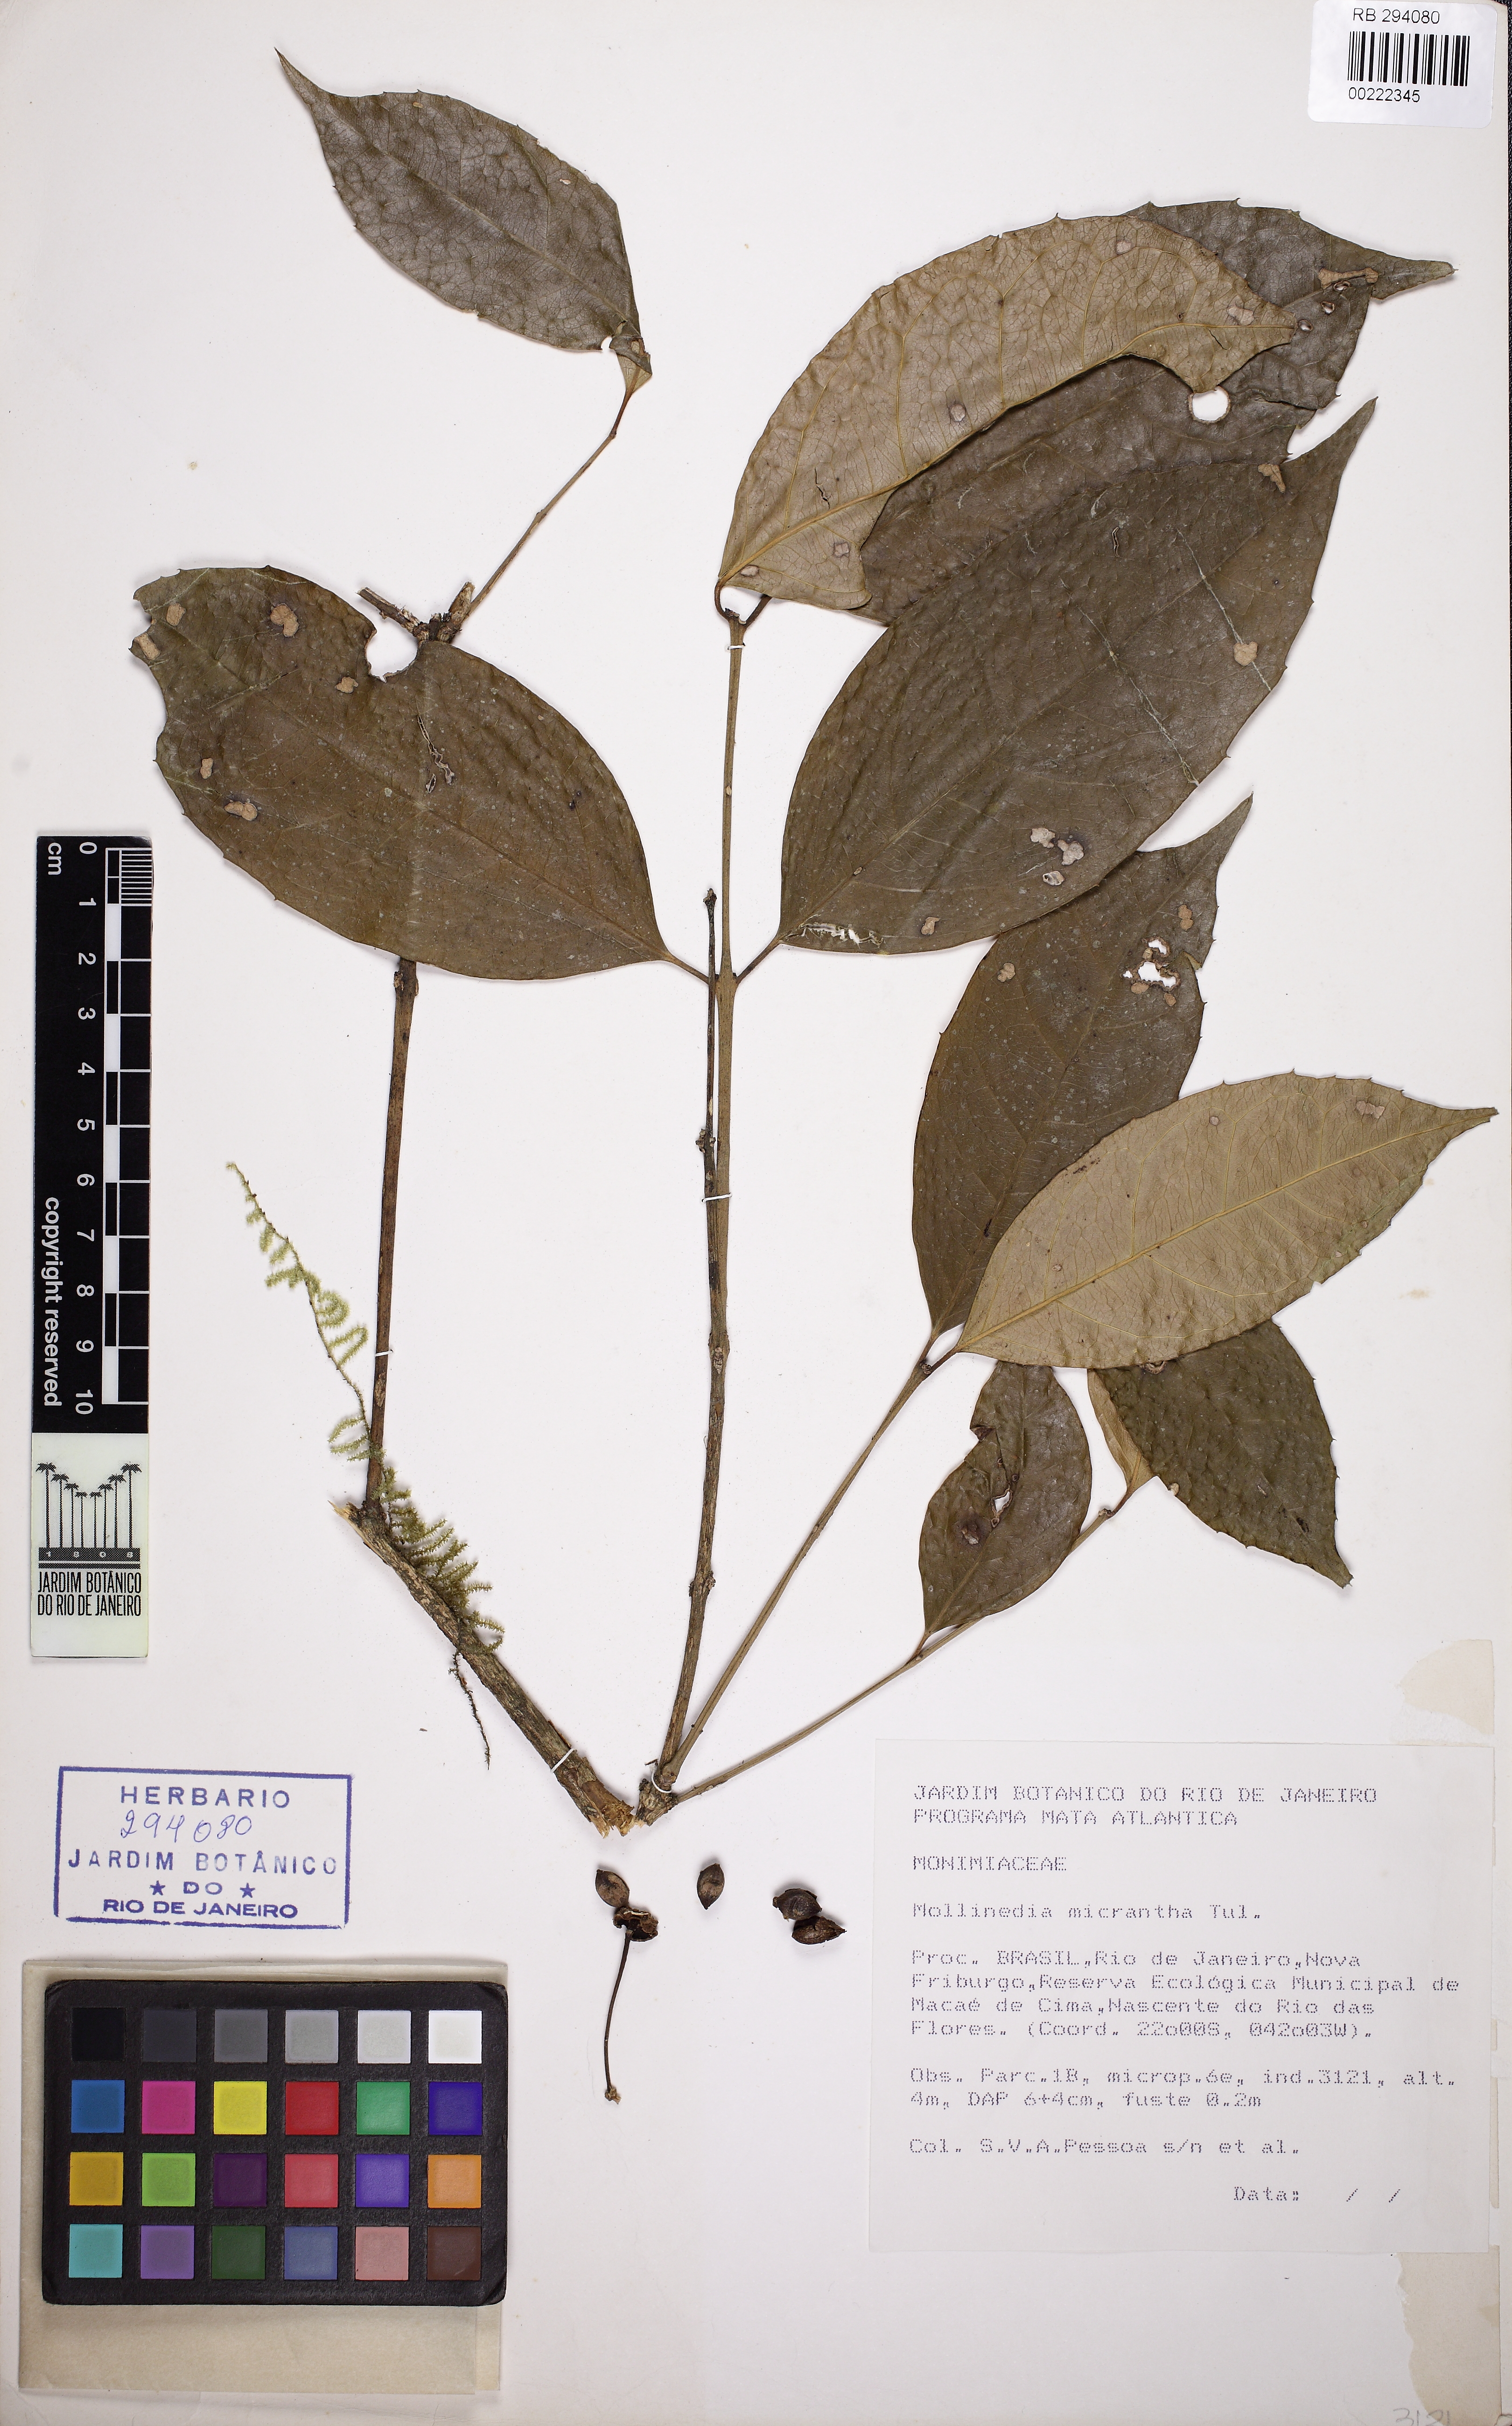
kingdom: Plantae
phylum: Tracheophyta
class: Magnoliopsida
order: Laurales
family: Monimiaceae
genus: Mollinedia
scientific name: Mollinedia marliae
